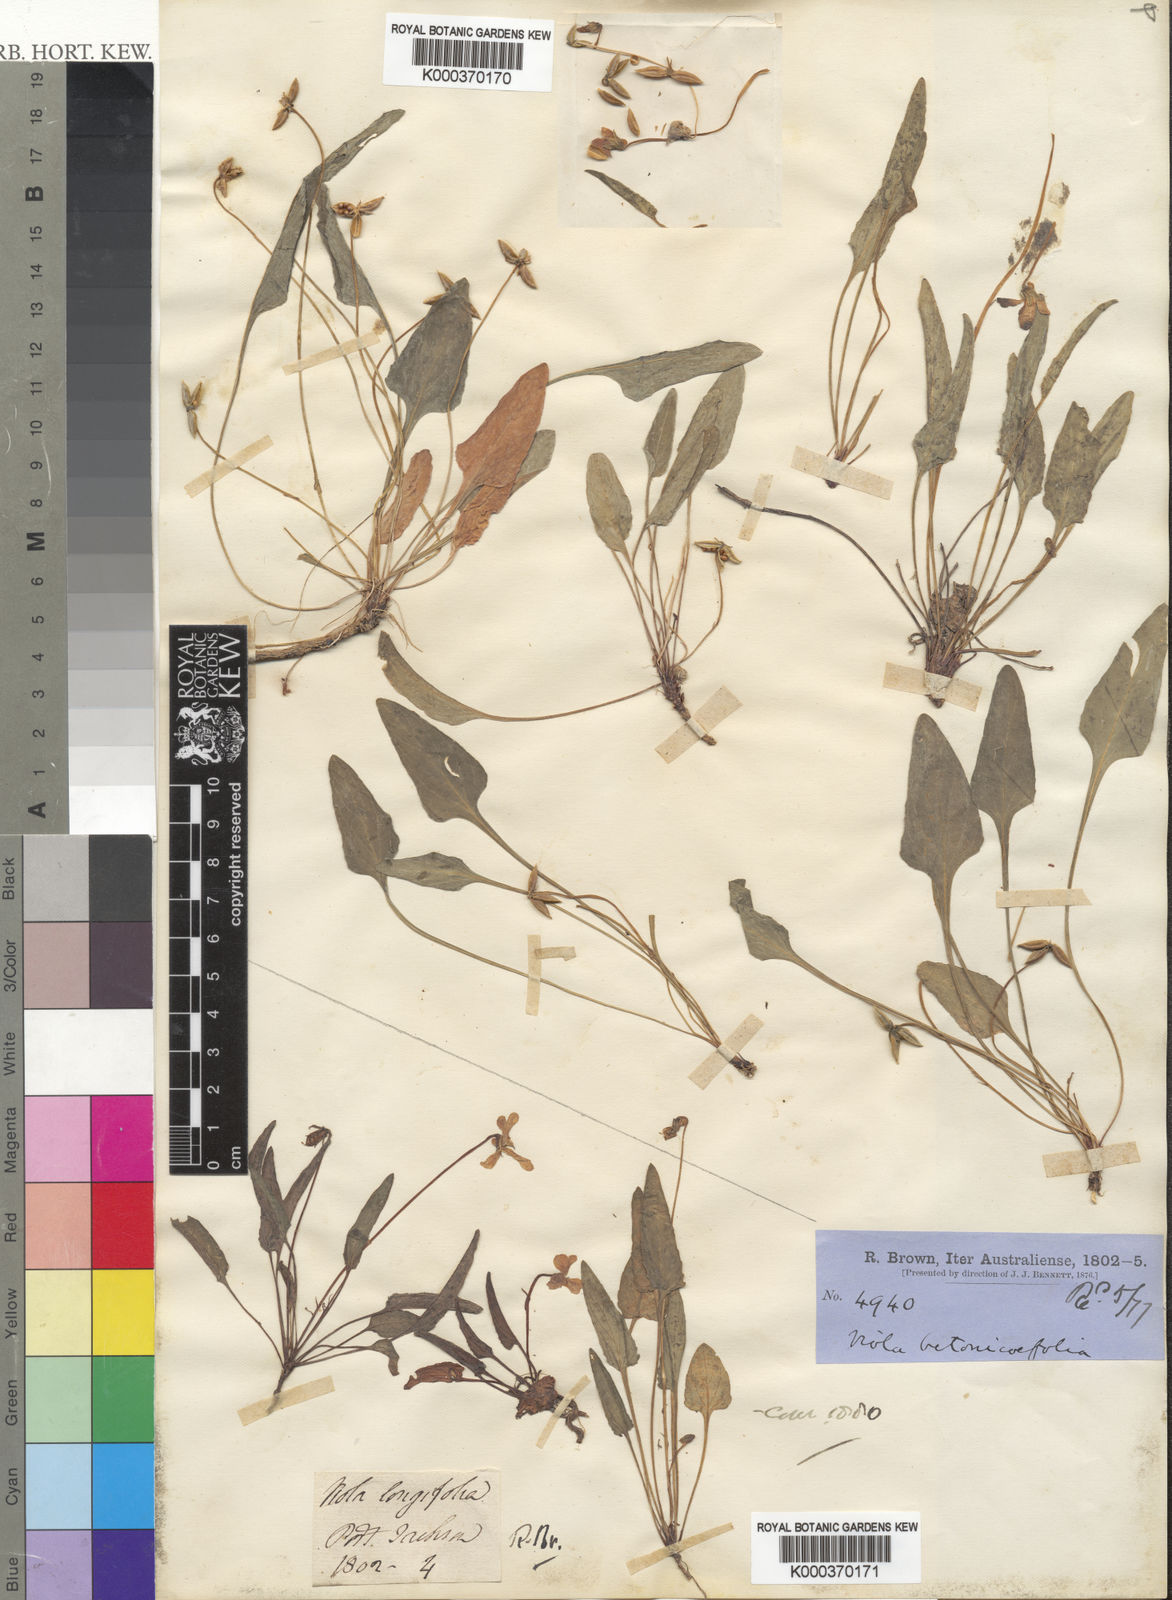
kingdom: Plantae
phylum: Tracheophyta
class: Magnoliopsida
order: Malpighiales
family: Violaceae
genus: Viola
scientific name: Viola betonicifolia
